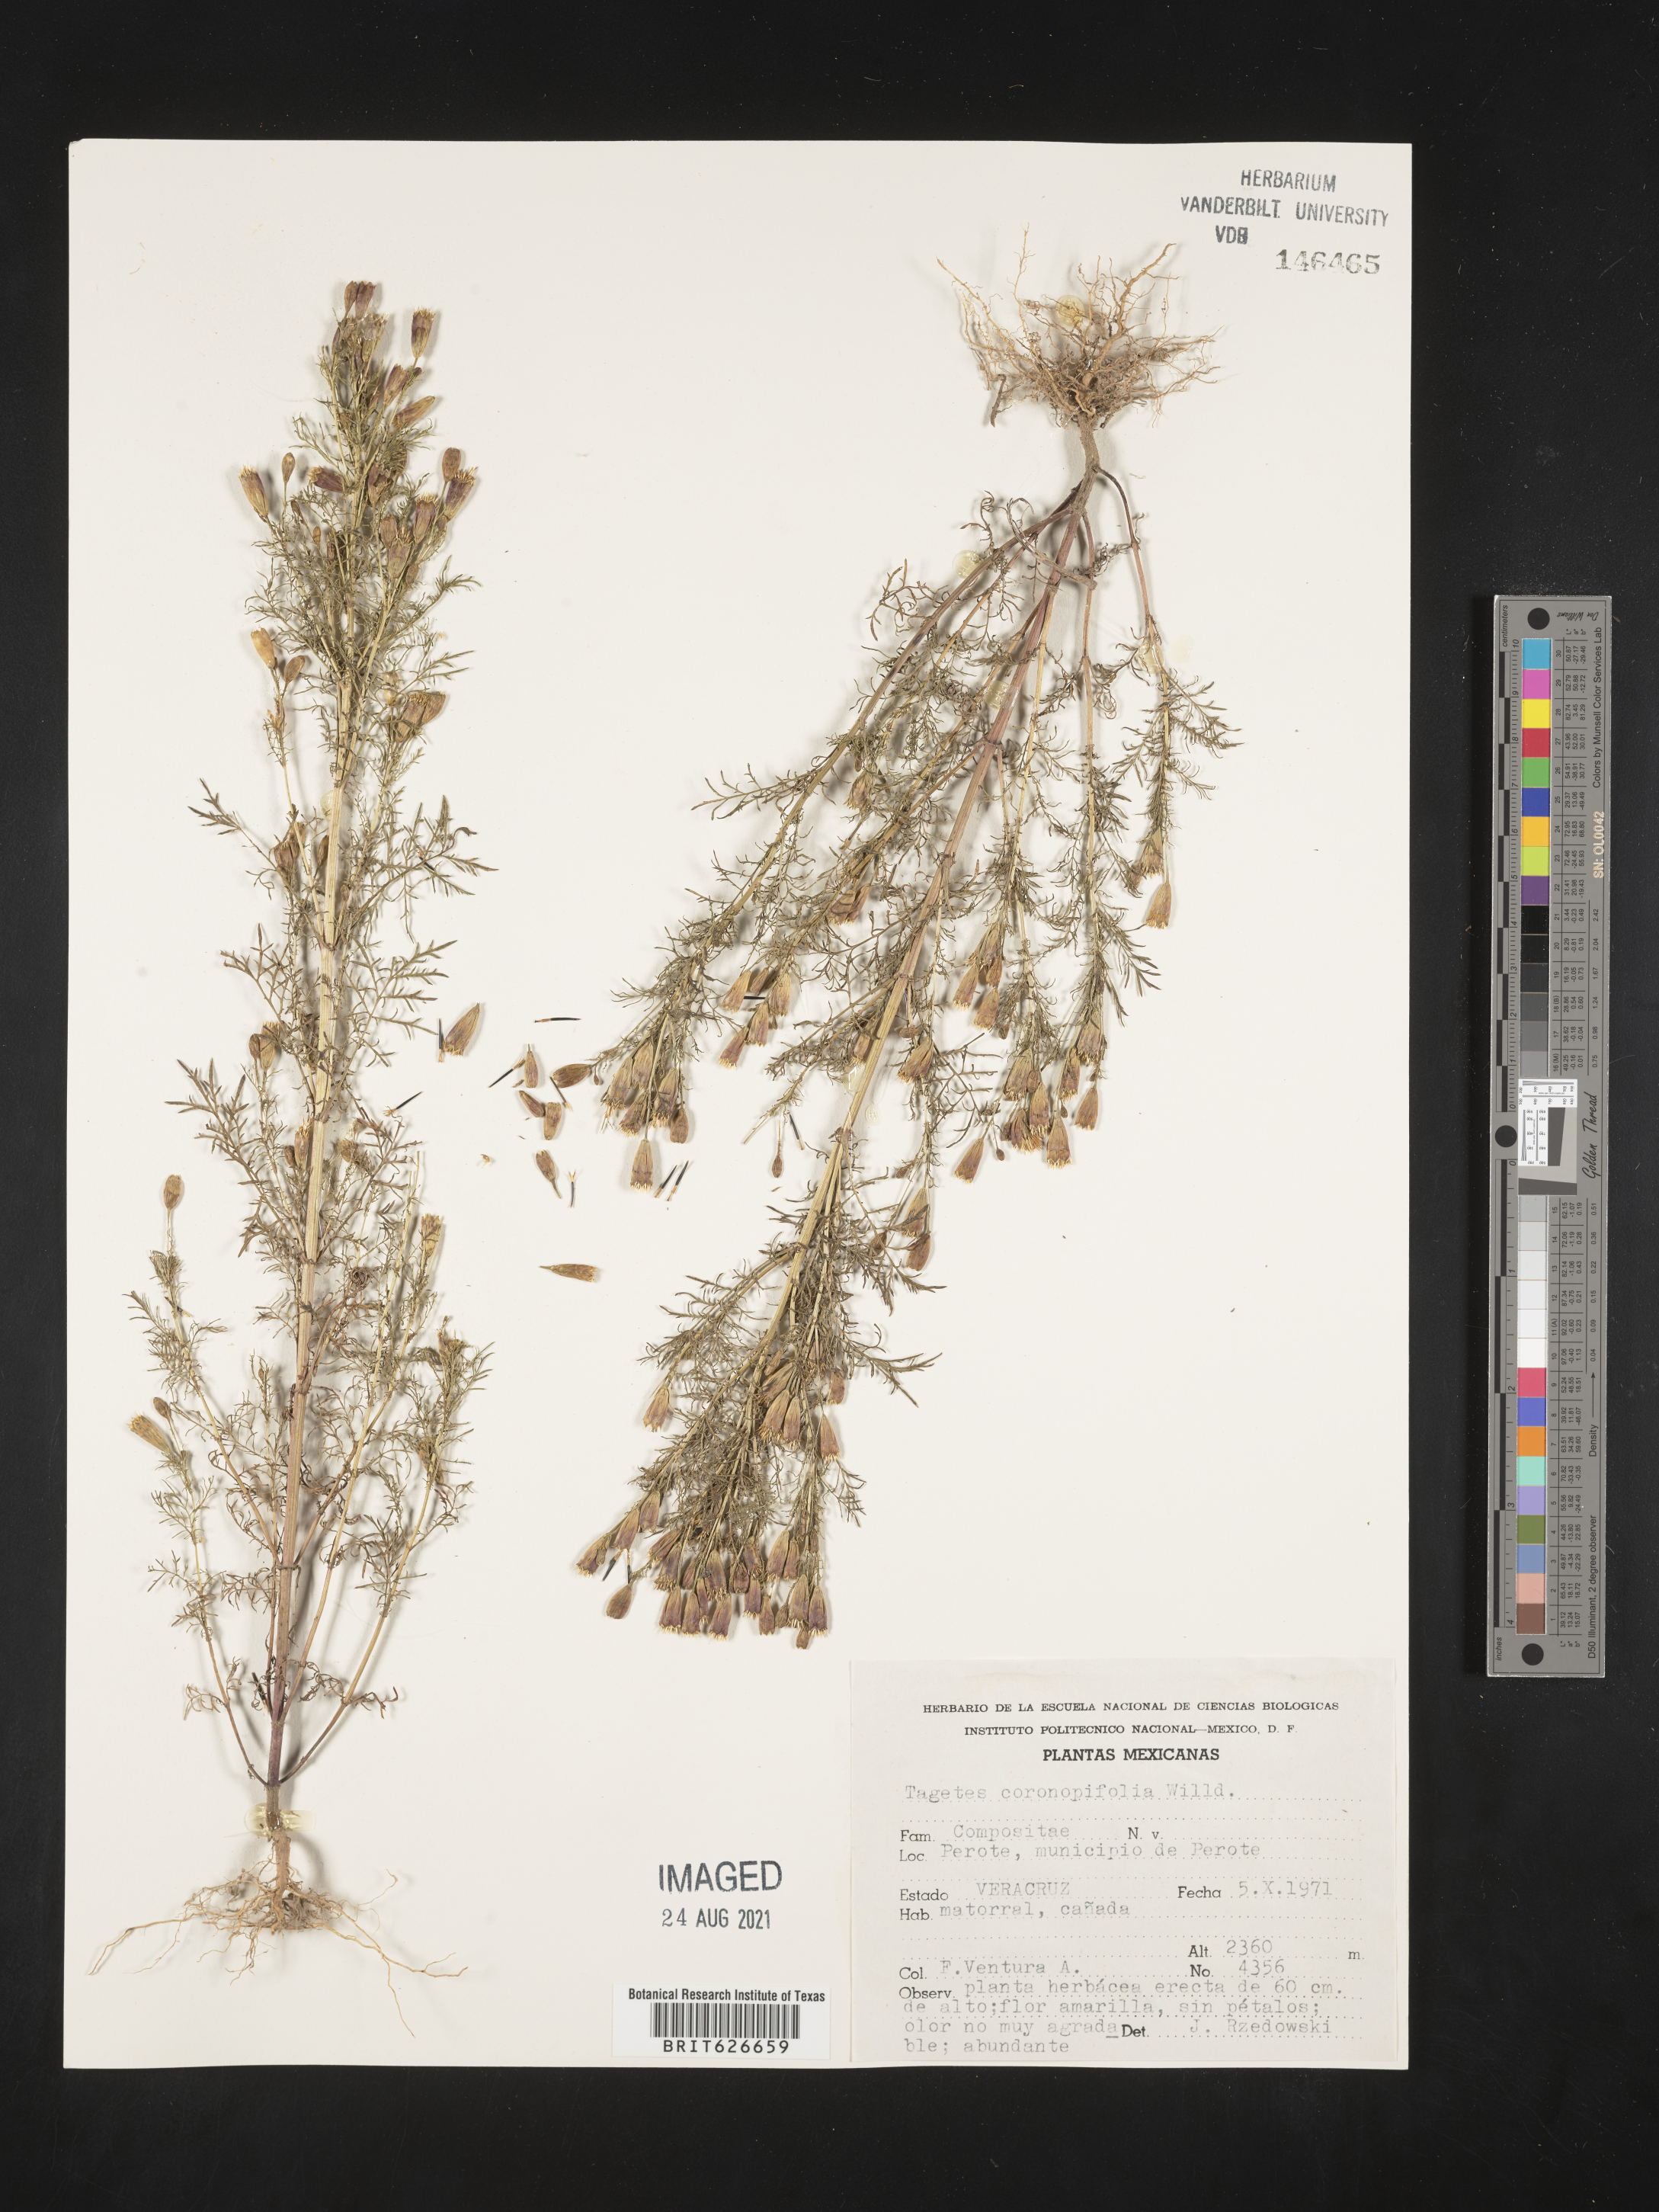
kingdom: Plantae
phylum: Tracheophyta
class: Magnoliopsida
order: Asterales
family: Asteraceae
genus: Tagetes
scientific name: Tagetes
